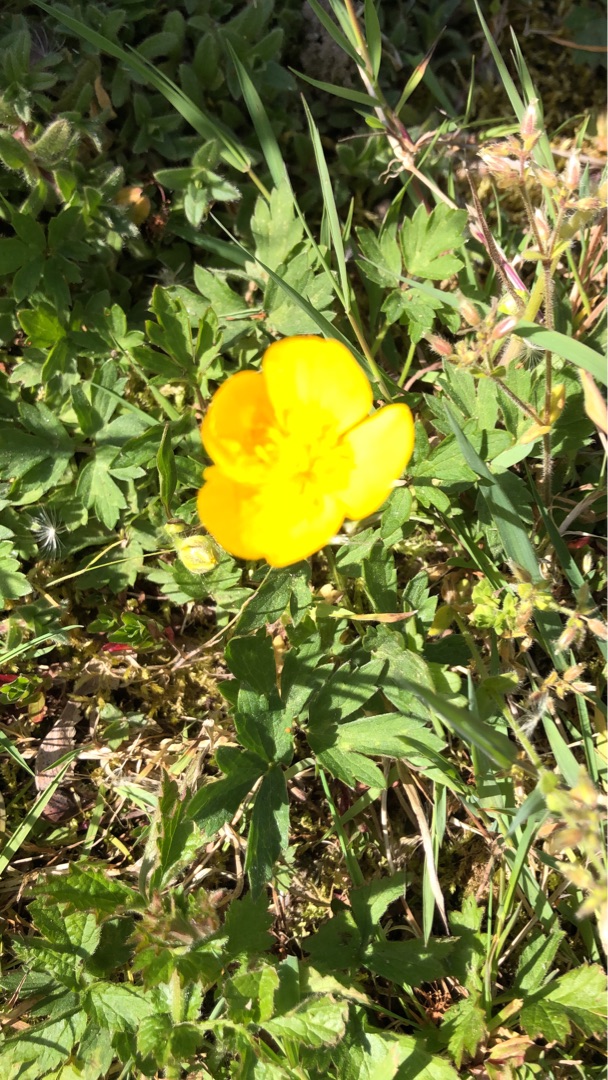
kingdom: Plantae
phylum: Tracheophyta
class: Magnoliopsida
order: Ranunculales
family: Ranunculaceae
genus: Ranunculus
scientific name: Ranunculus repens
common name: Lav ranunkel
